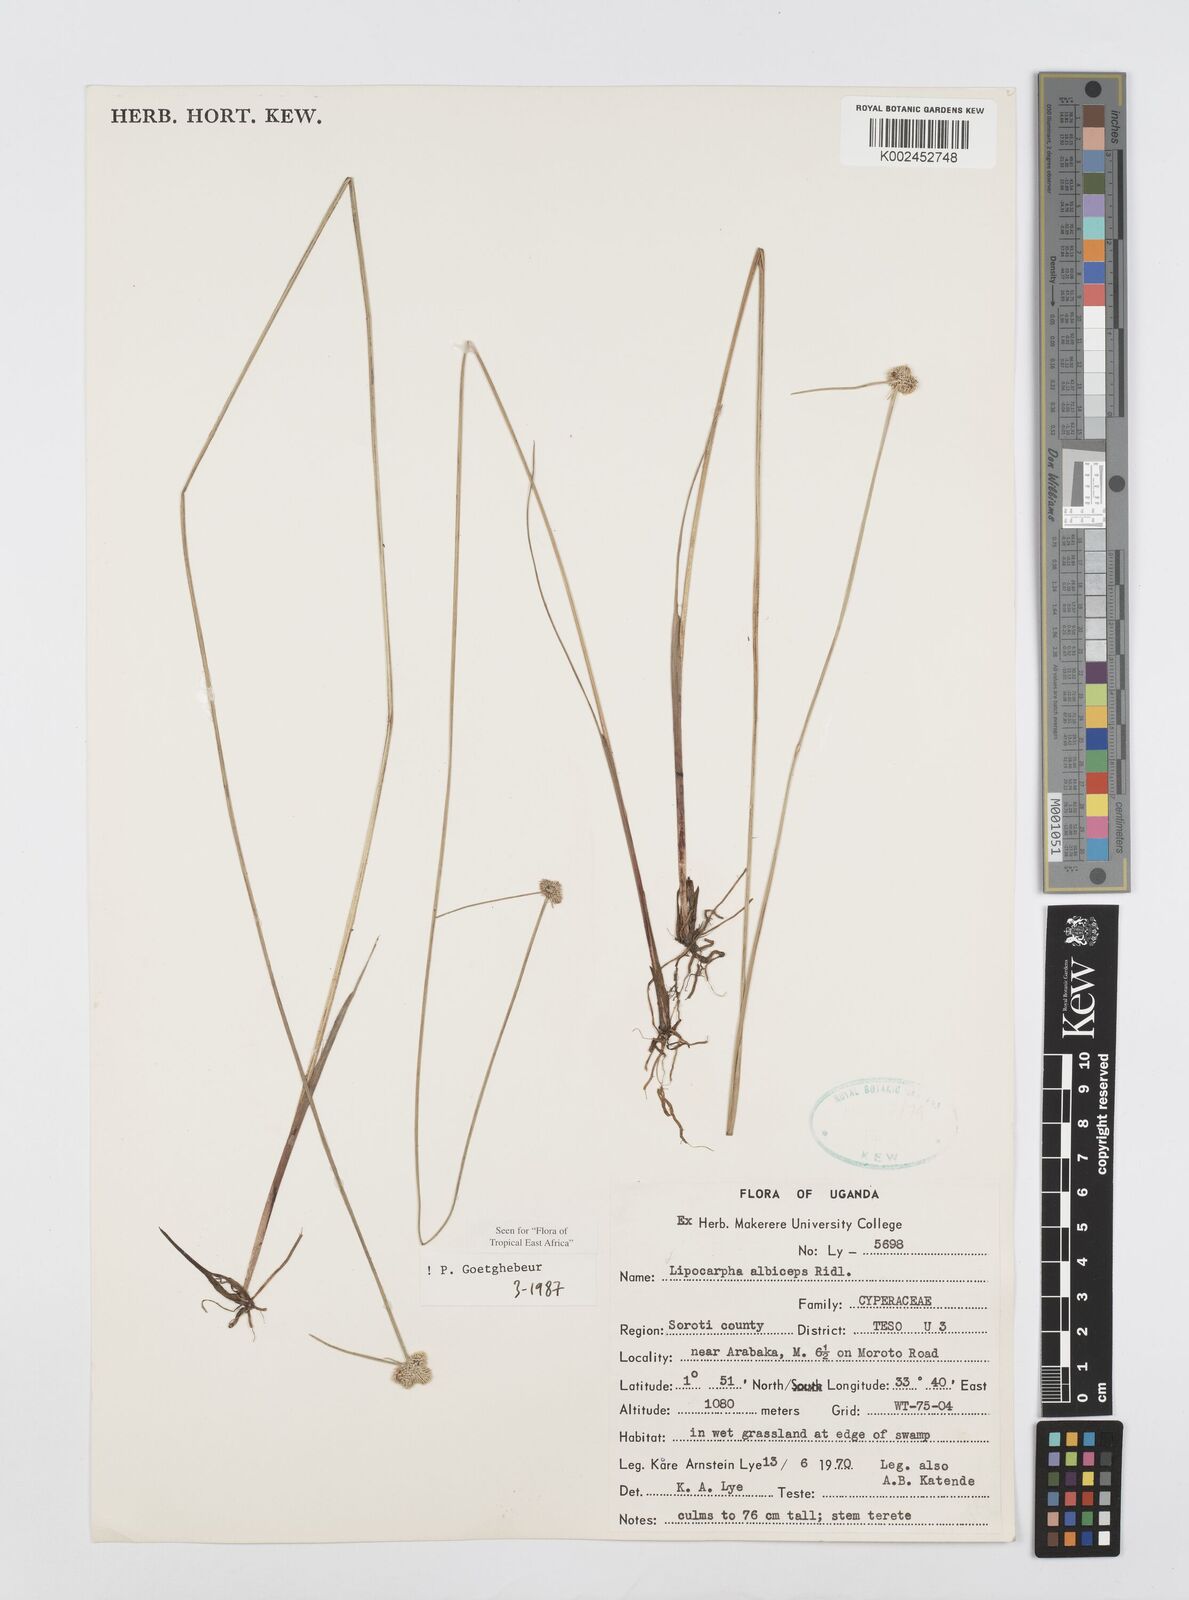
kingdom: Plantae
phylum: Tracheophyta
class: Liliopsida
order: Poales
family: Cyperaceae
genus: Cyperus
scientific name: Cyperus albiceps
